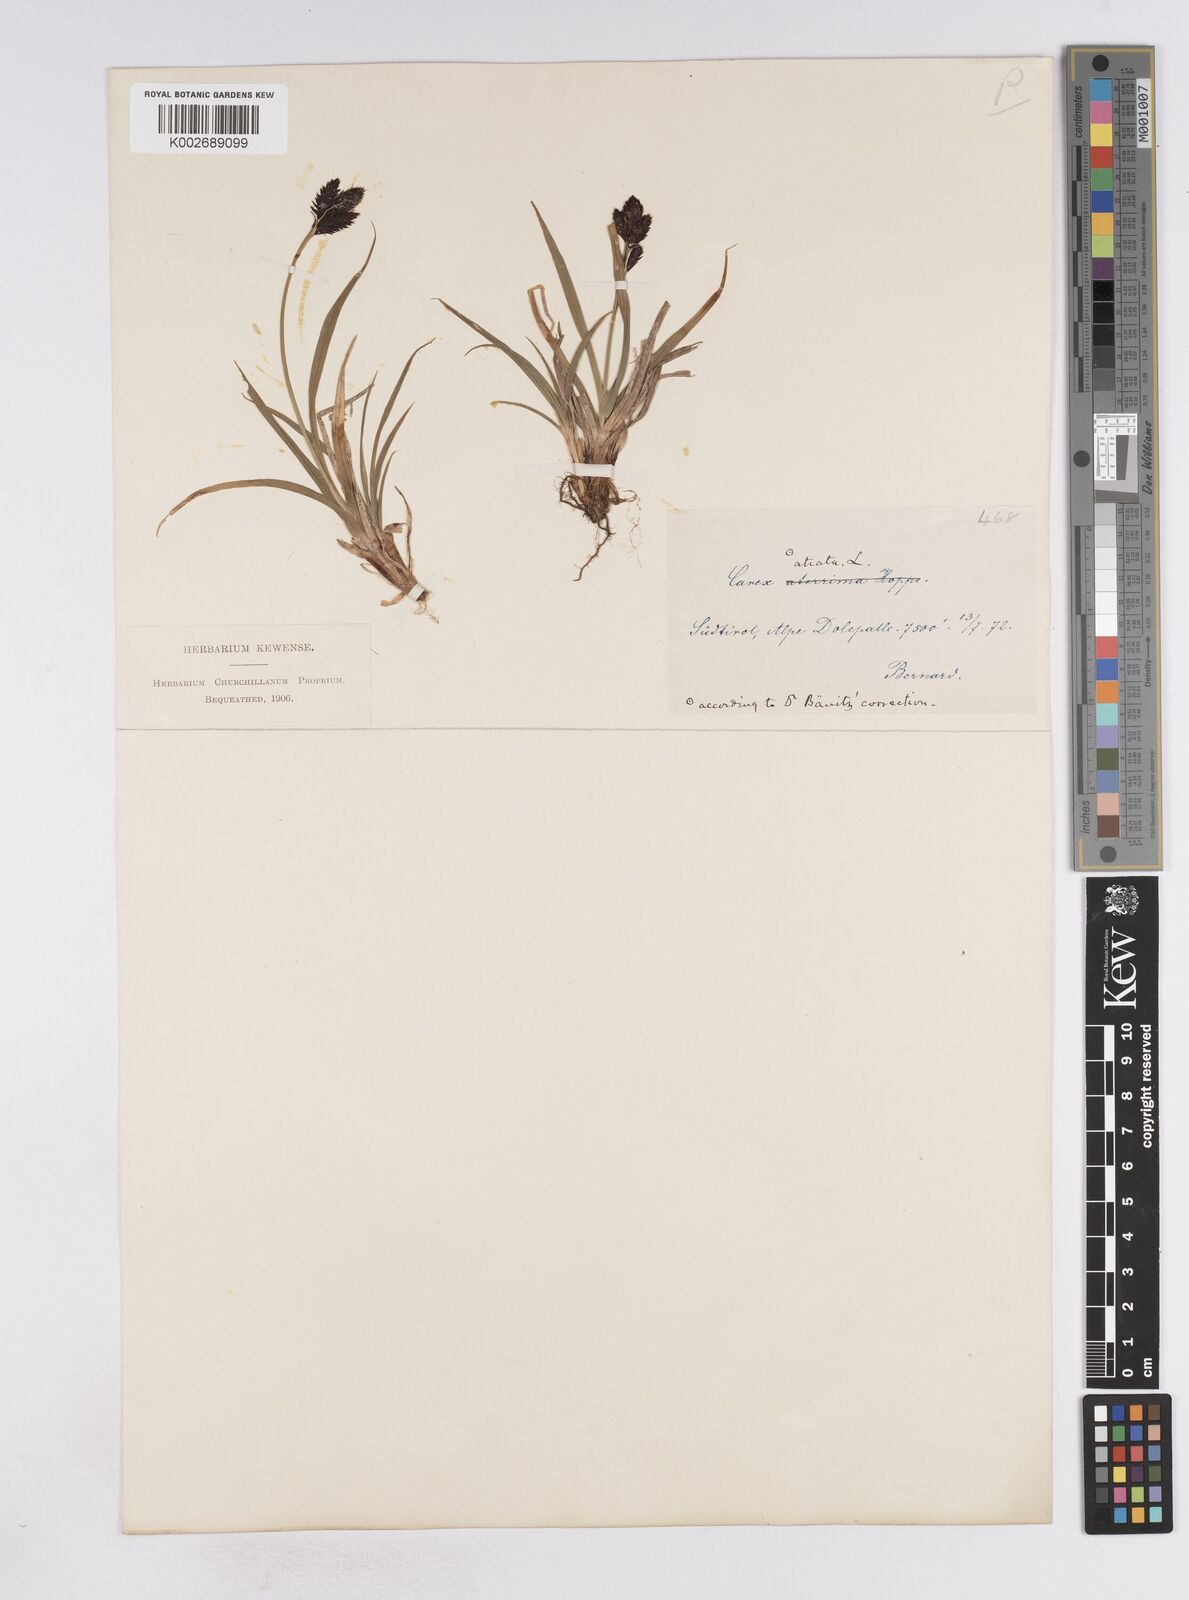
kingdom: Plantae
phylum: Tracheophyta
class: Liliopsida
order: Poales
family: Cyperaceae
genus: Carex
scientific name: Carex atrata
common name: Black alpine sedge
